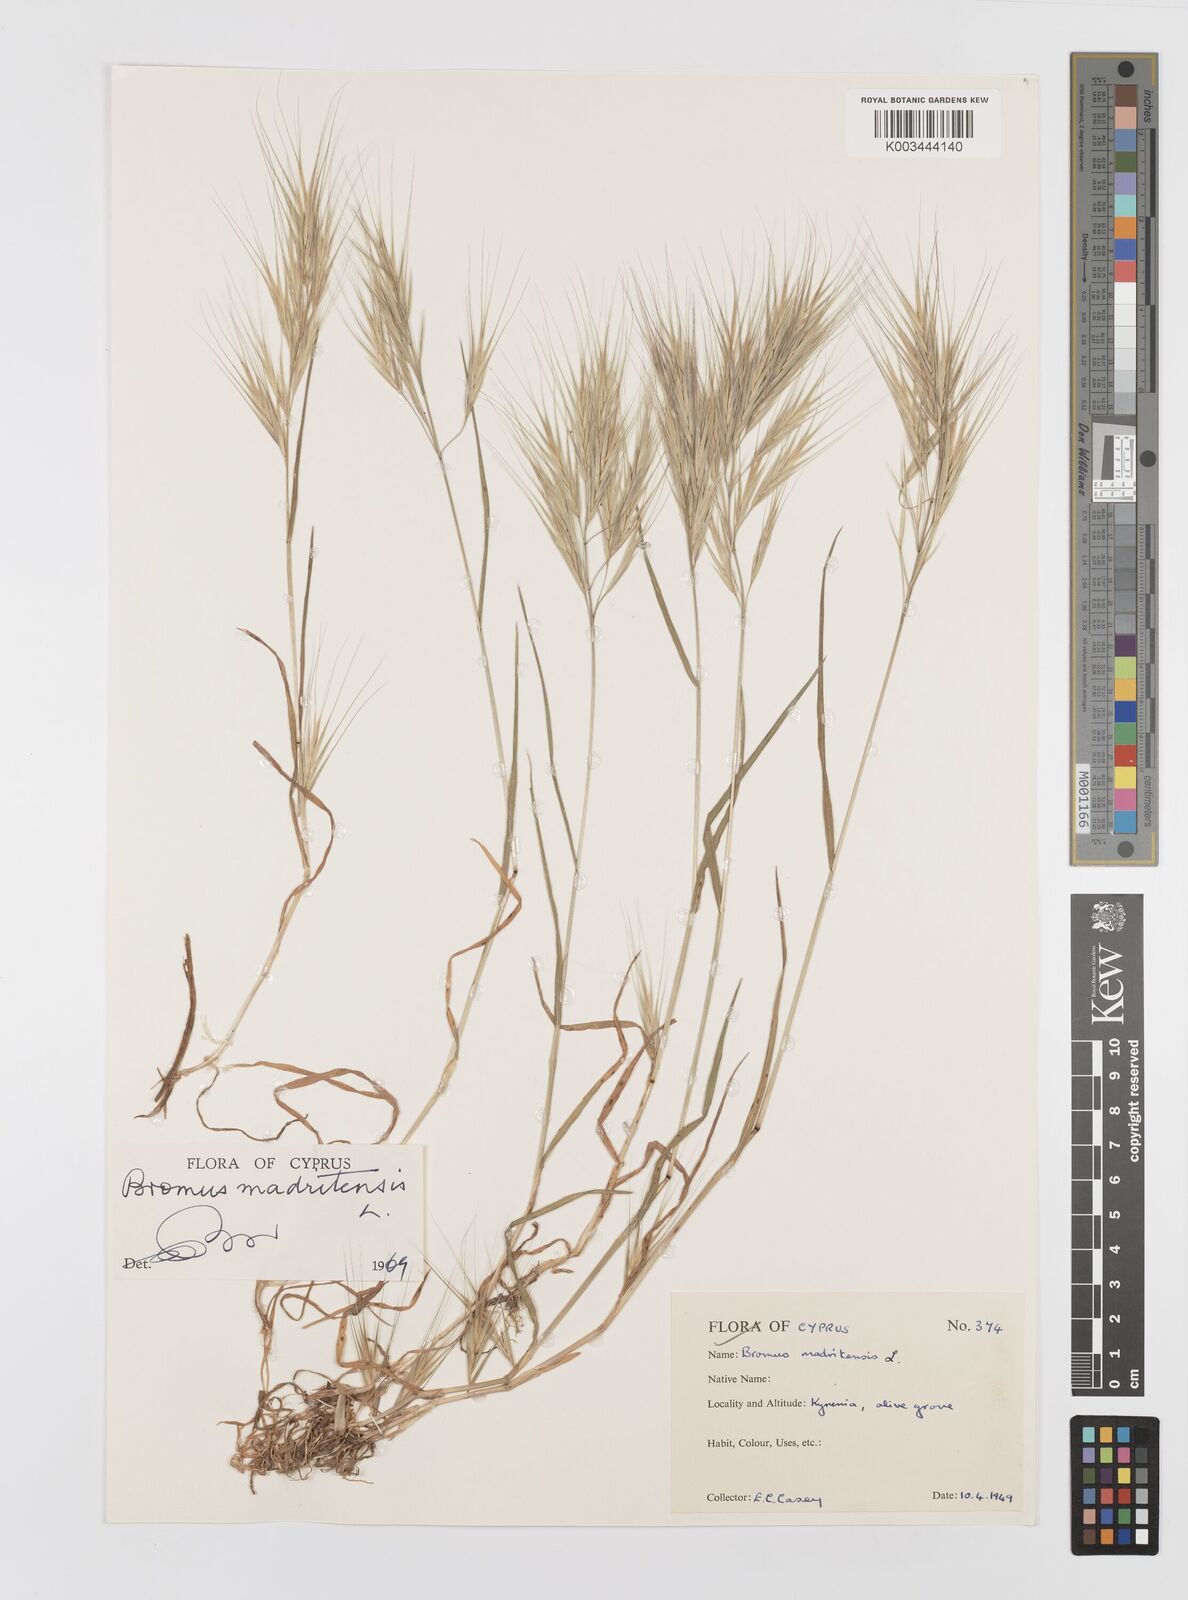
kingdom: Plantae
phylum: Tracheophyta
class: Liliopsida
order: Poales
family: Poaceae
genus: Bromus
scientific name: Bromus madritensis
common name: Compact brome
